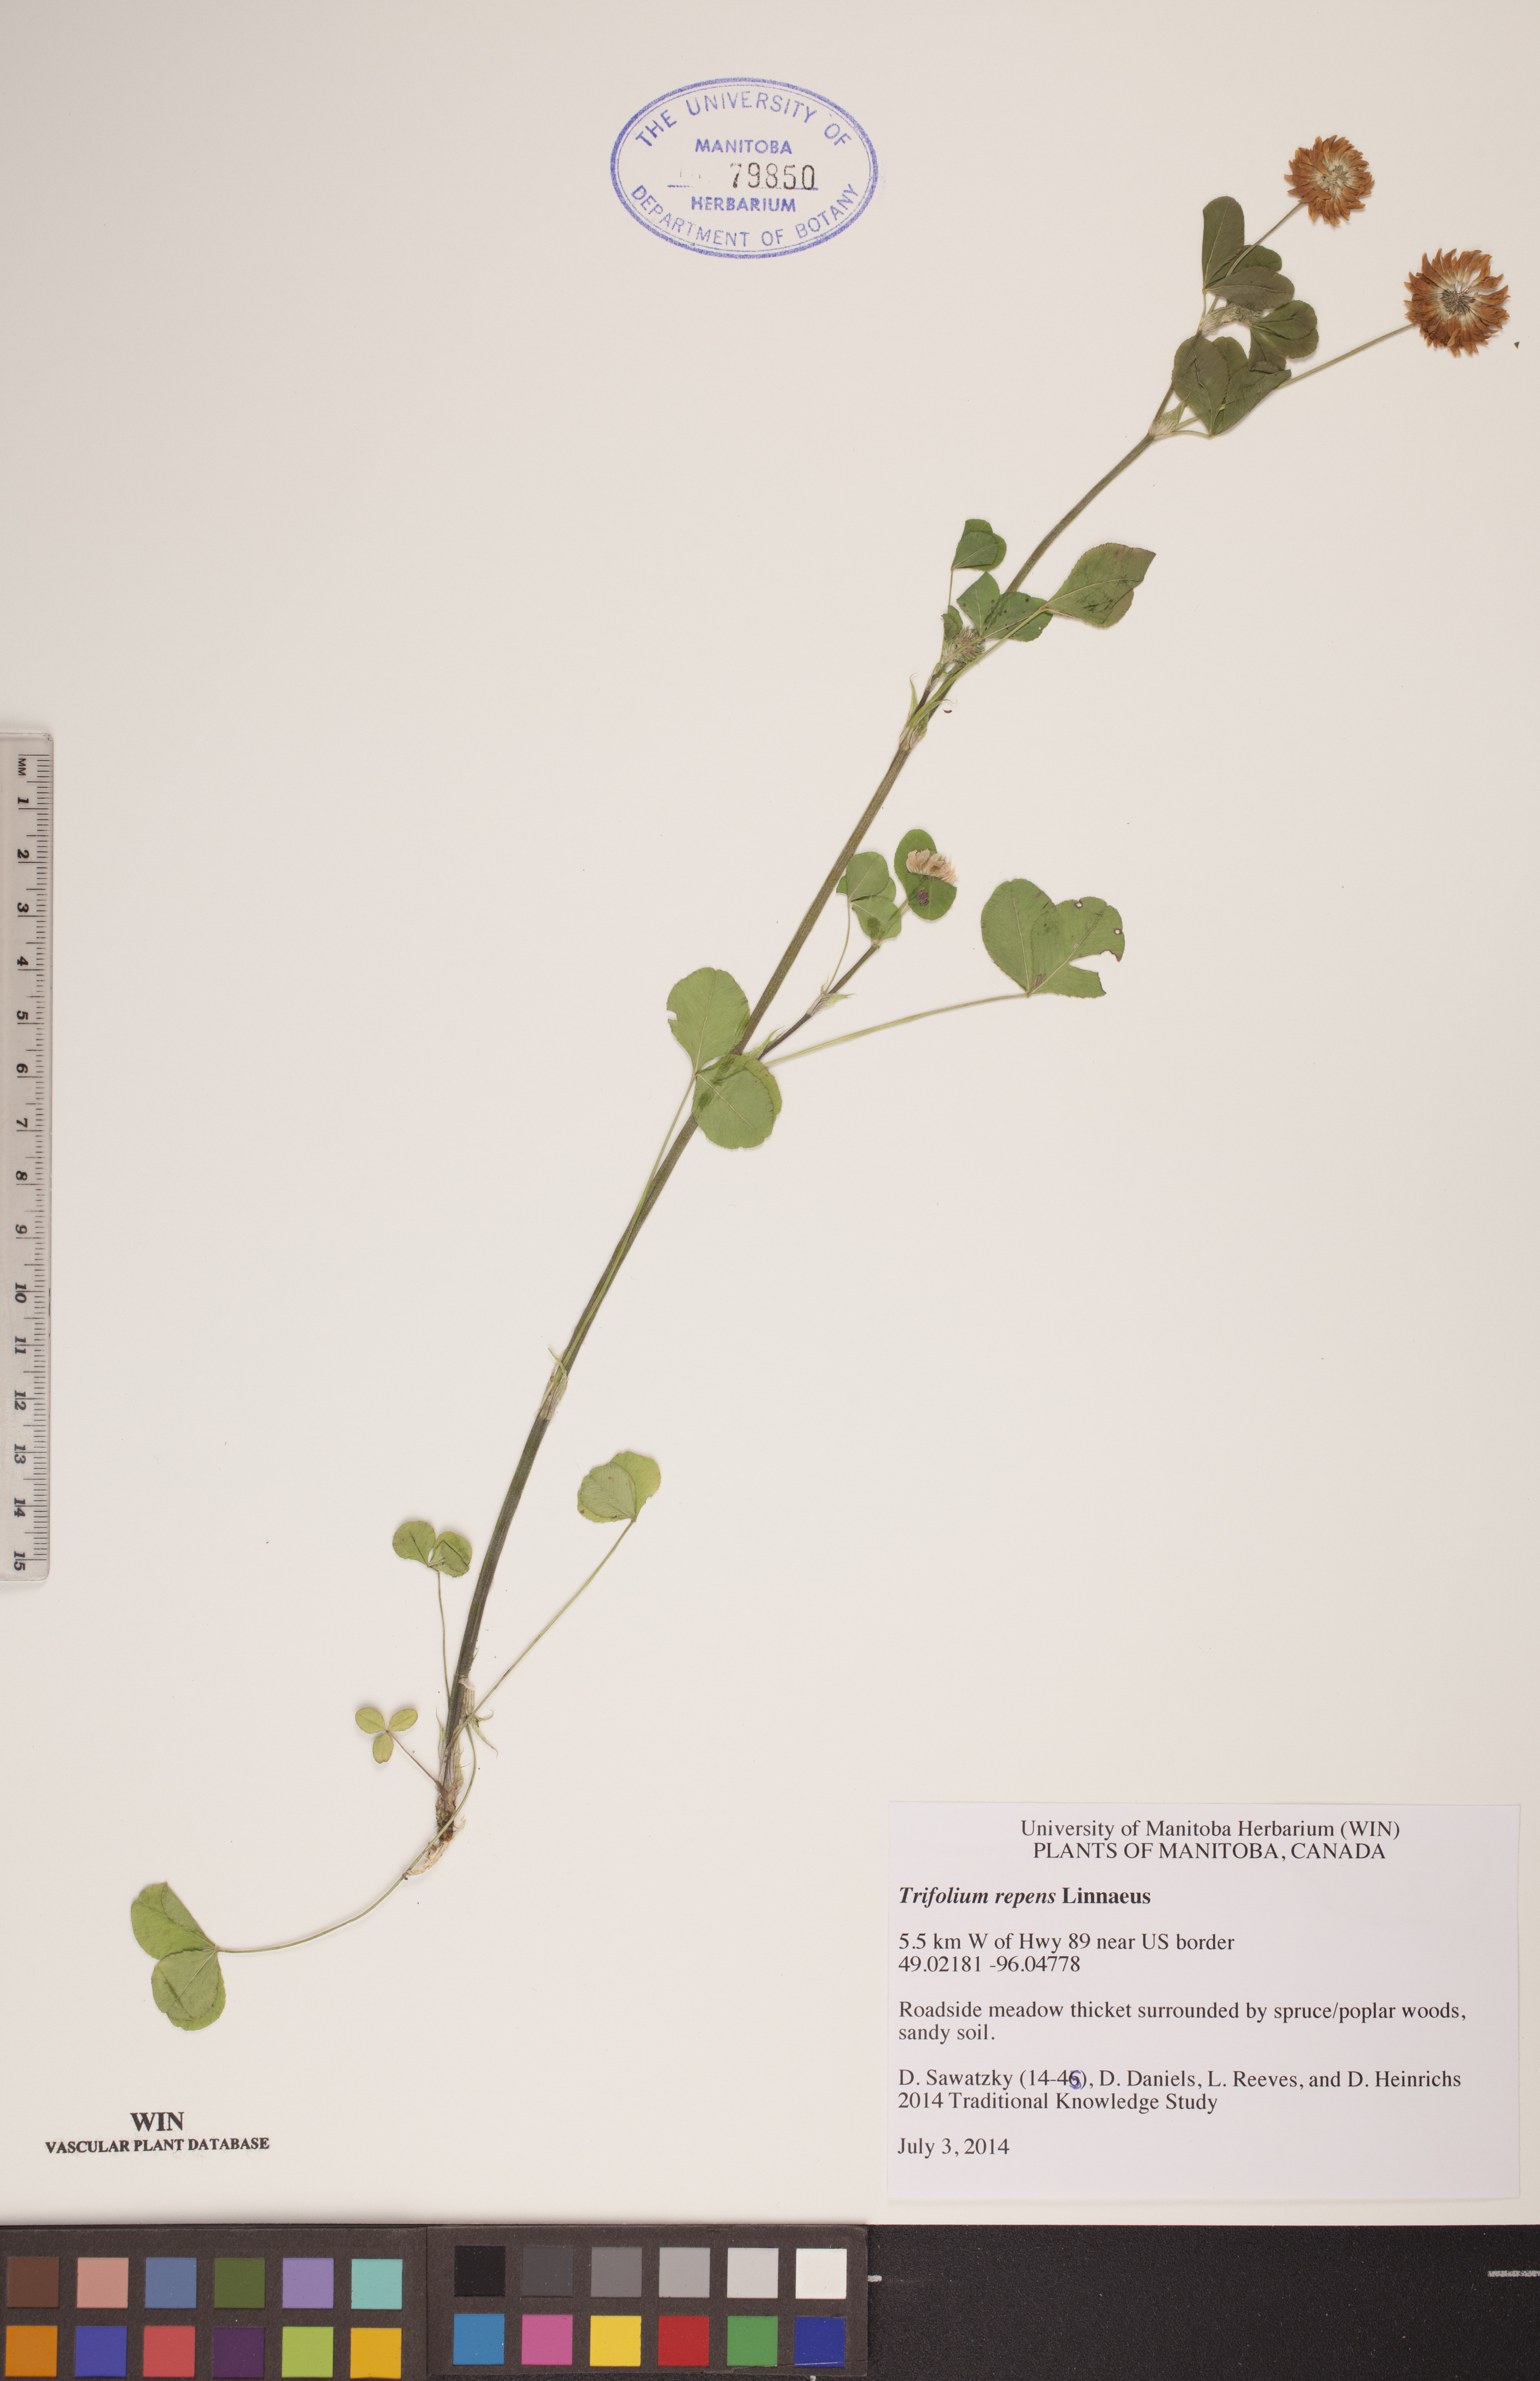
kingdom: Plantae
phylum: Tracheophyta
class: Magnoliopsida
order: Fabales
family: Fabaceae
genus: Trifolium
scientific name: Trifolium repens
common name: White clover
